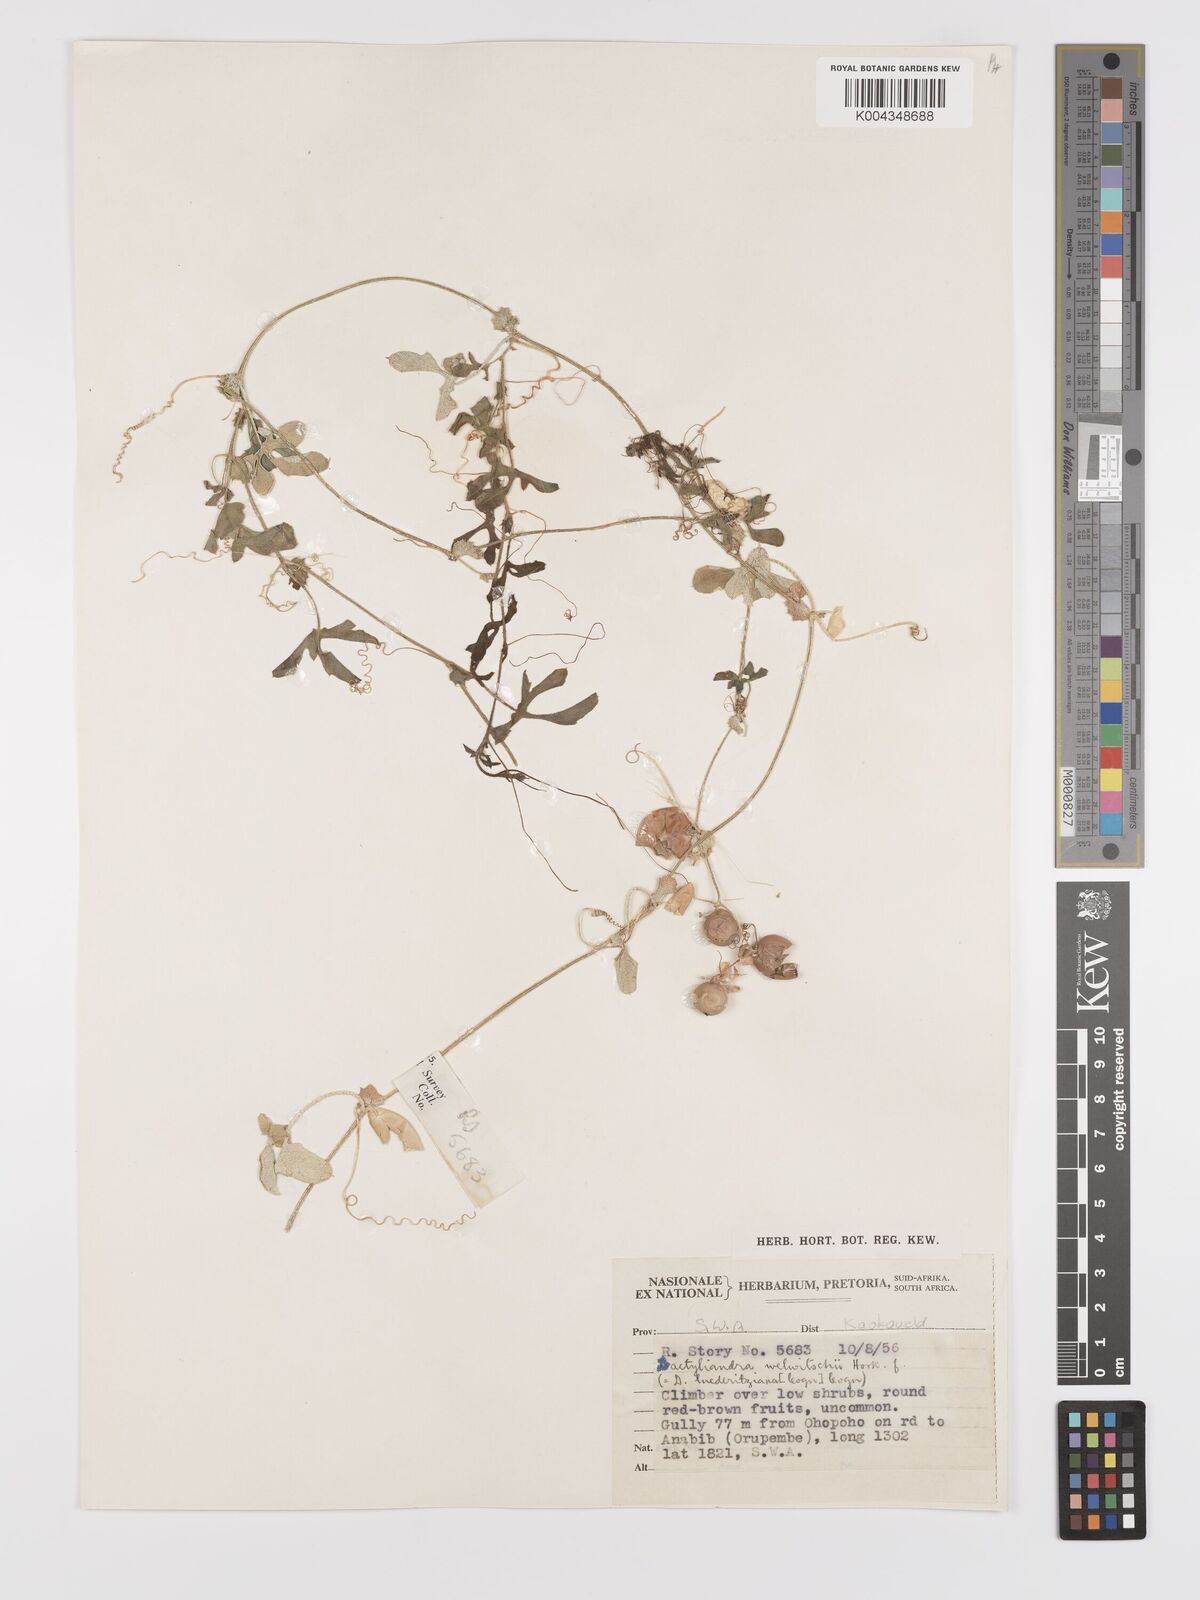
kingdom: Plantae
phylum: Tracheophyta
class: Magnoliopsida
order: Cucurbitales
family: Cucurbitaceae
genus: Dactyliandra
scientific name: Dactyliandra welwitschii
